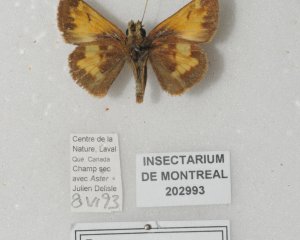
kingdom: Animalia
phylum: Arthropoda
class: Insecta
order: Lepidoptera
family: Hesperiidae
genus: Lon
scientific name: Lon hobomok
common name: Hobomok Skipper
